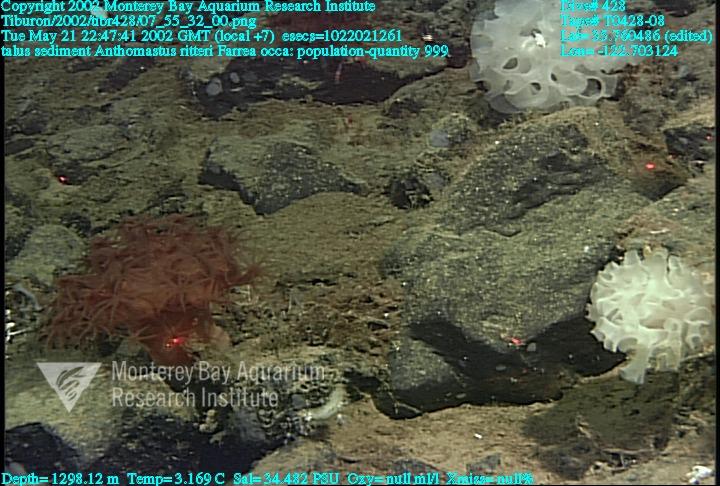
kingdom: Animalia
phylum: Porifera
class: Hexactinellida
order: Sceptrulophora
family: Farreidae
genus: Farrea
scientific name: Farrea occa
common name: Reversed glass sponge
